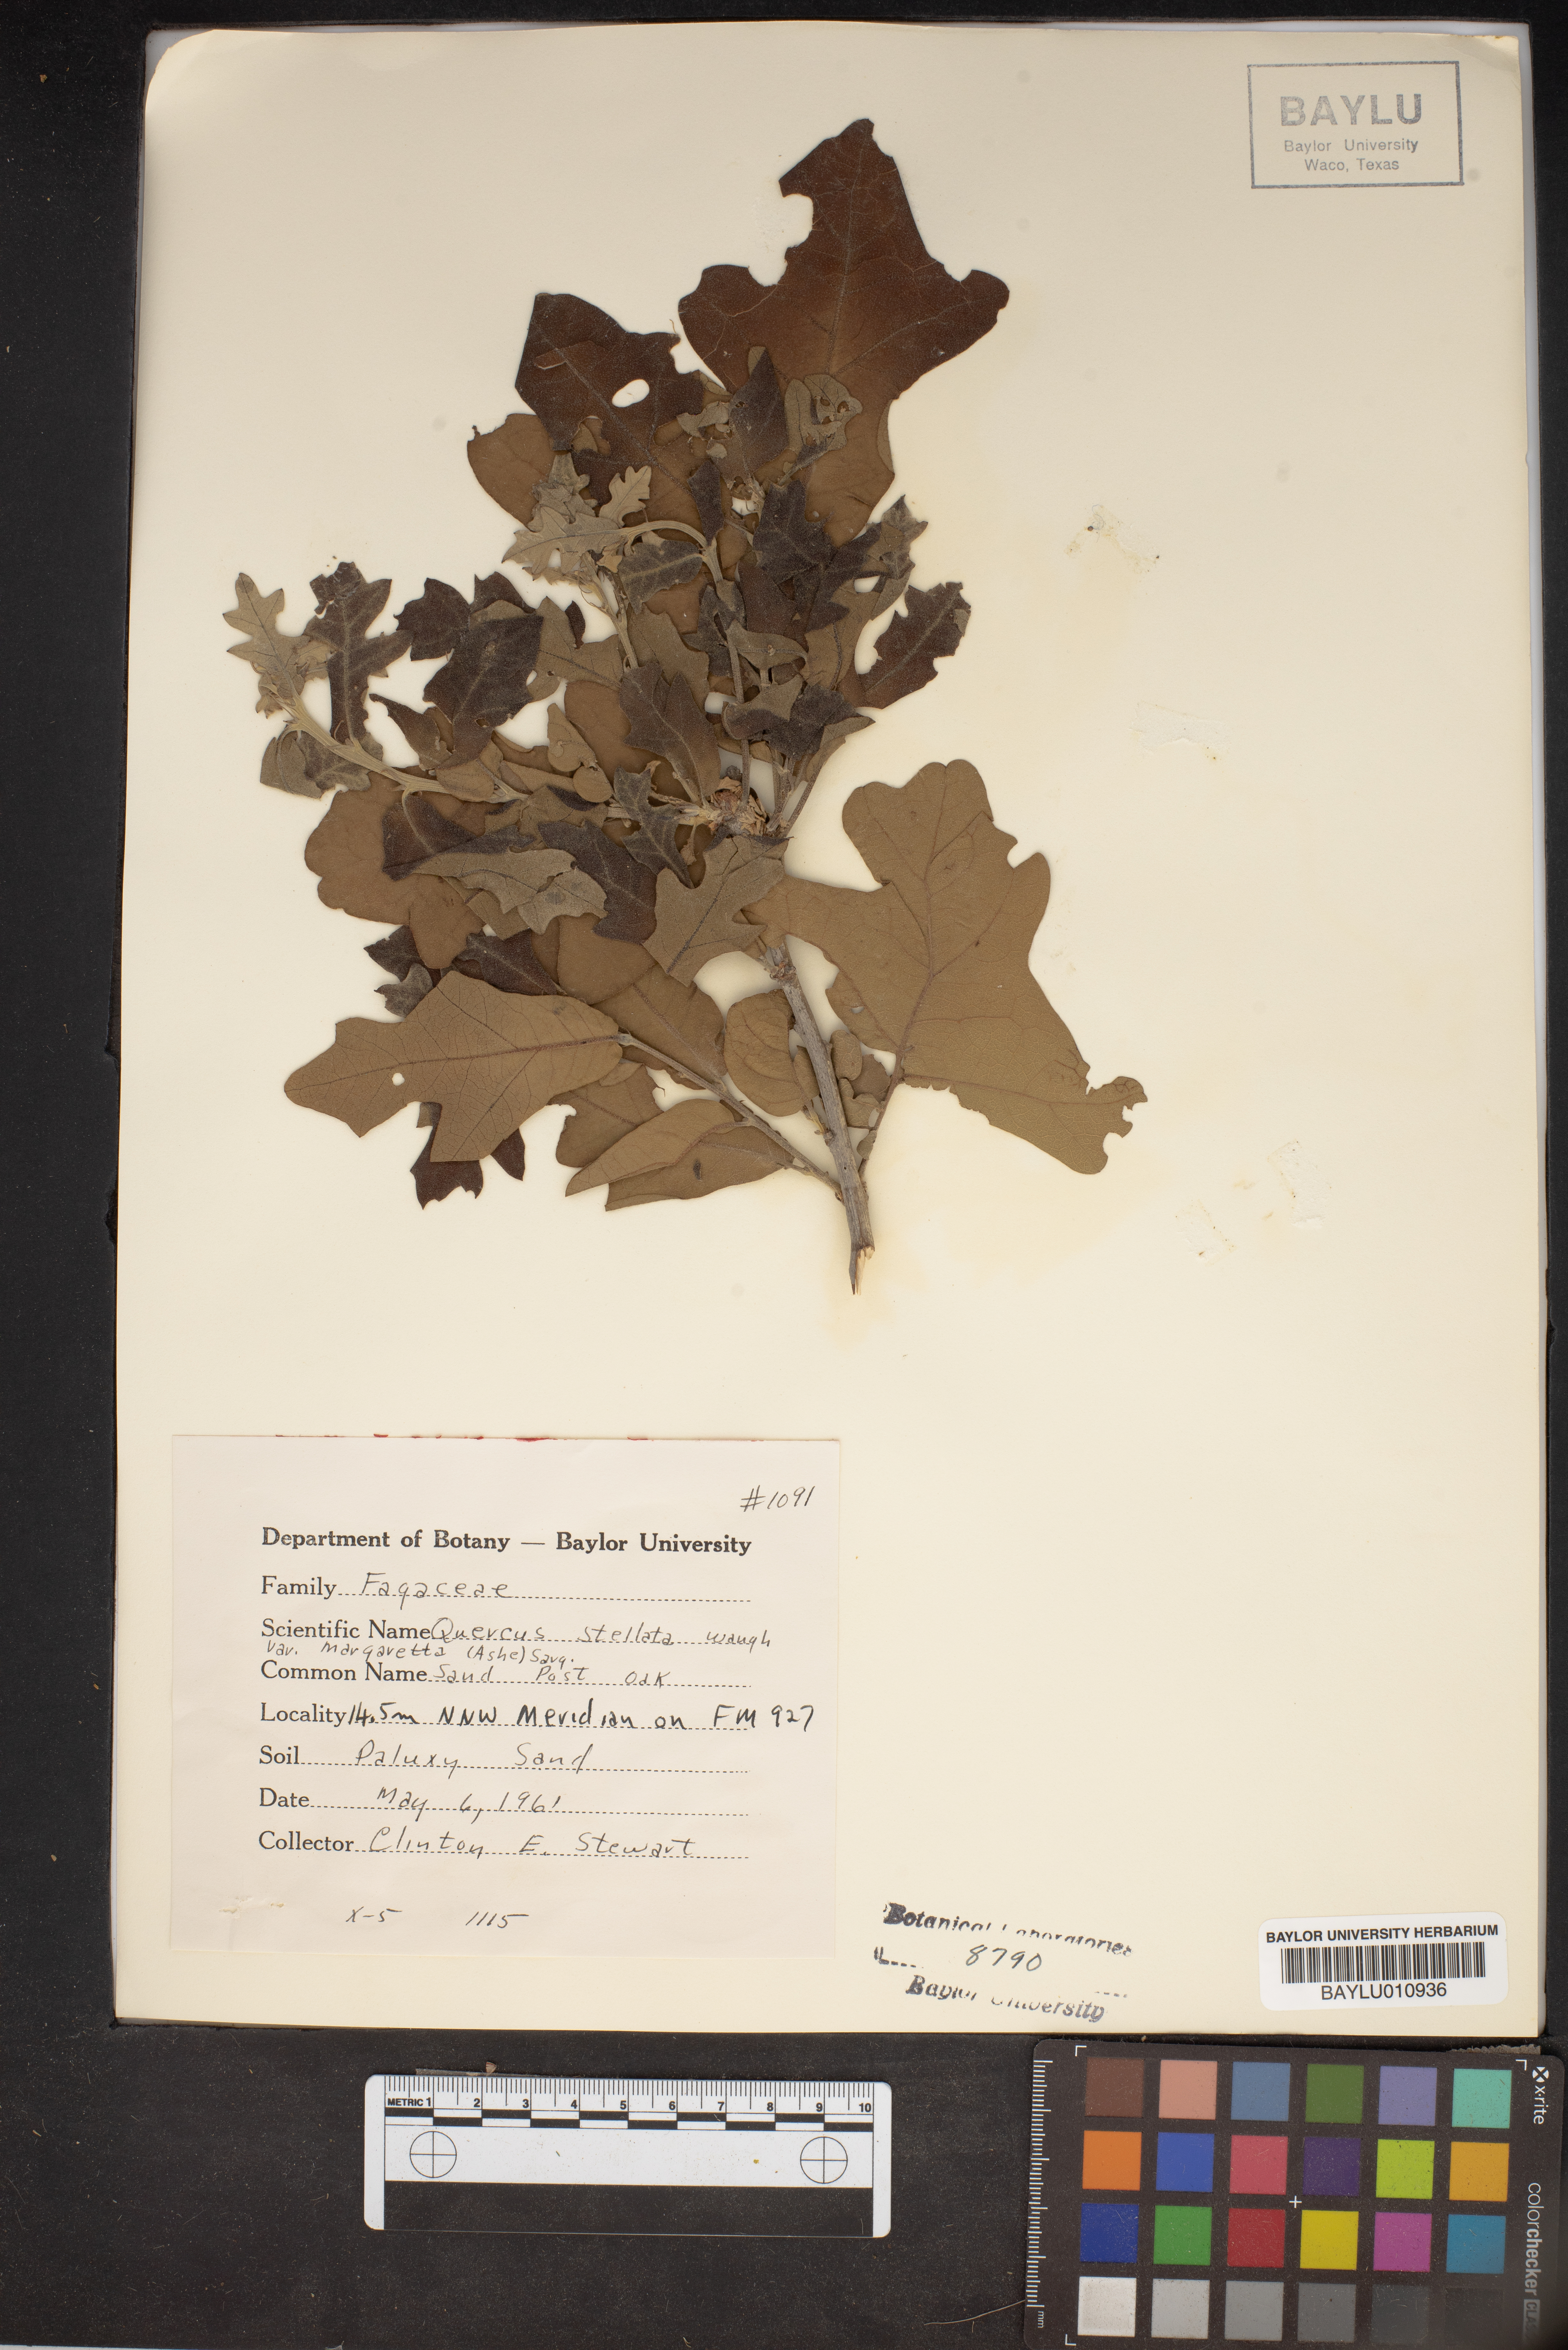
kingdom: Plantae
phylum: Tracheophyta
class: Magnoliopsida
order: Fagales
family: Fagaceae
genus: Quercus
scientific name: Quercus margaretta
